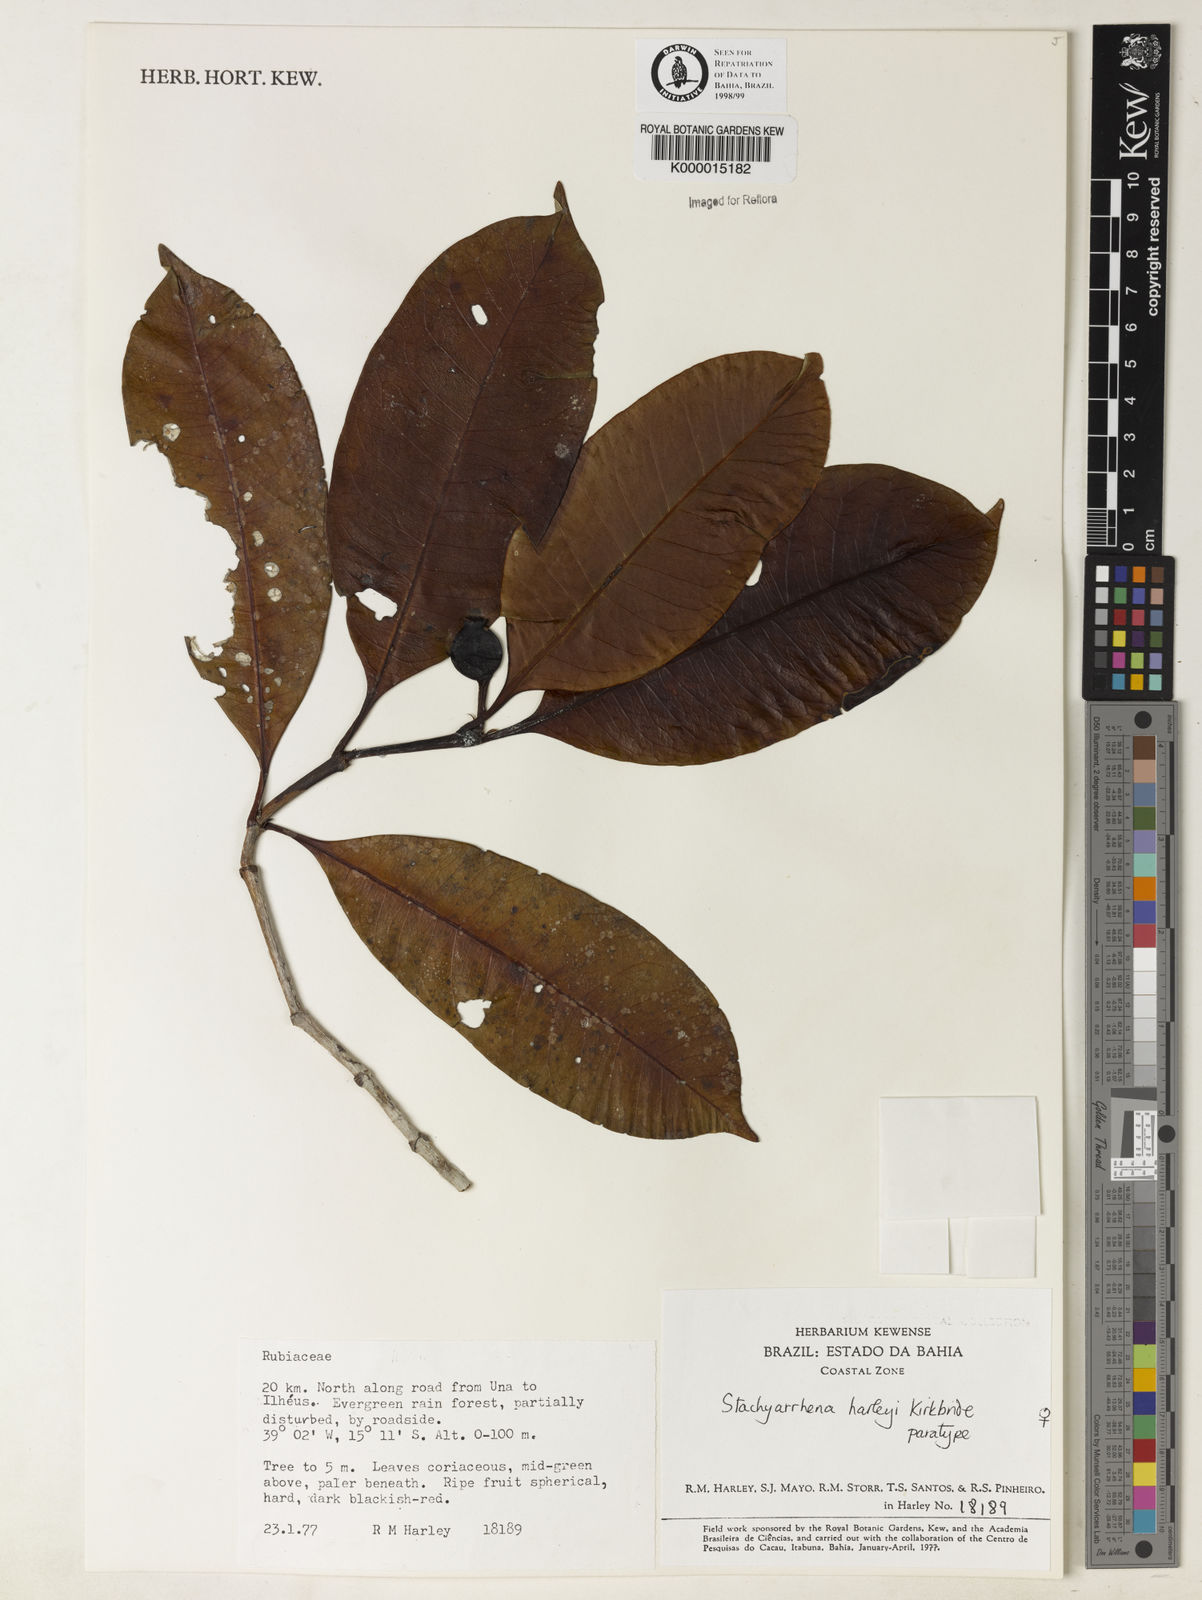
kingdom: Plantae
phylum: Tracheophyta
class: Magnoliopsida
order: Gentianales
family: Rubiaceae
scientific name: Rubiaceae
